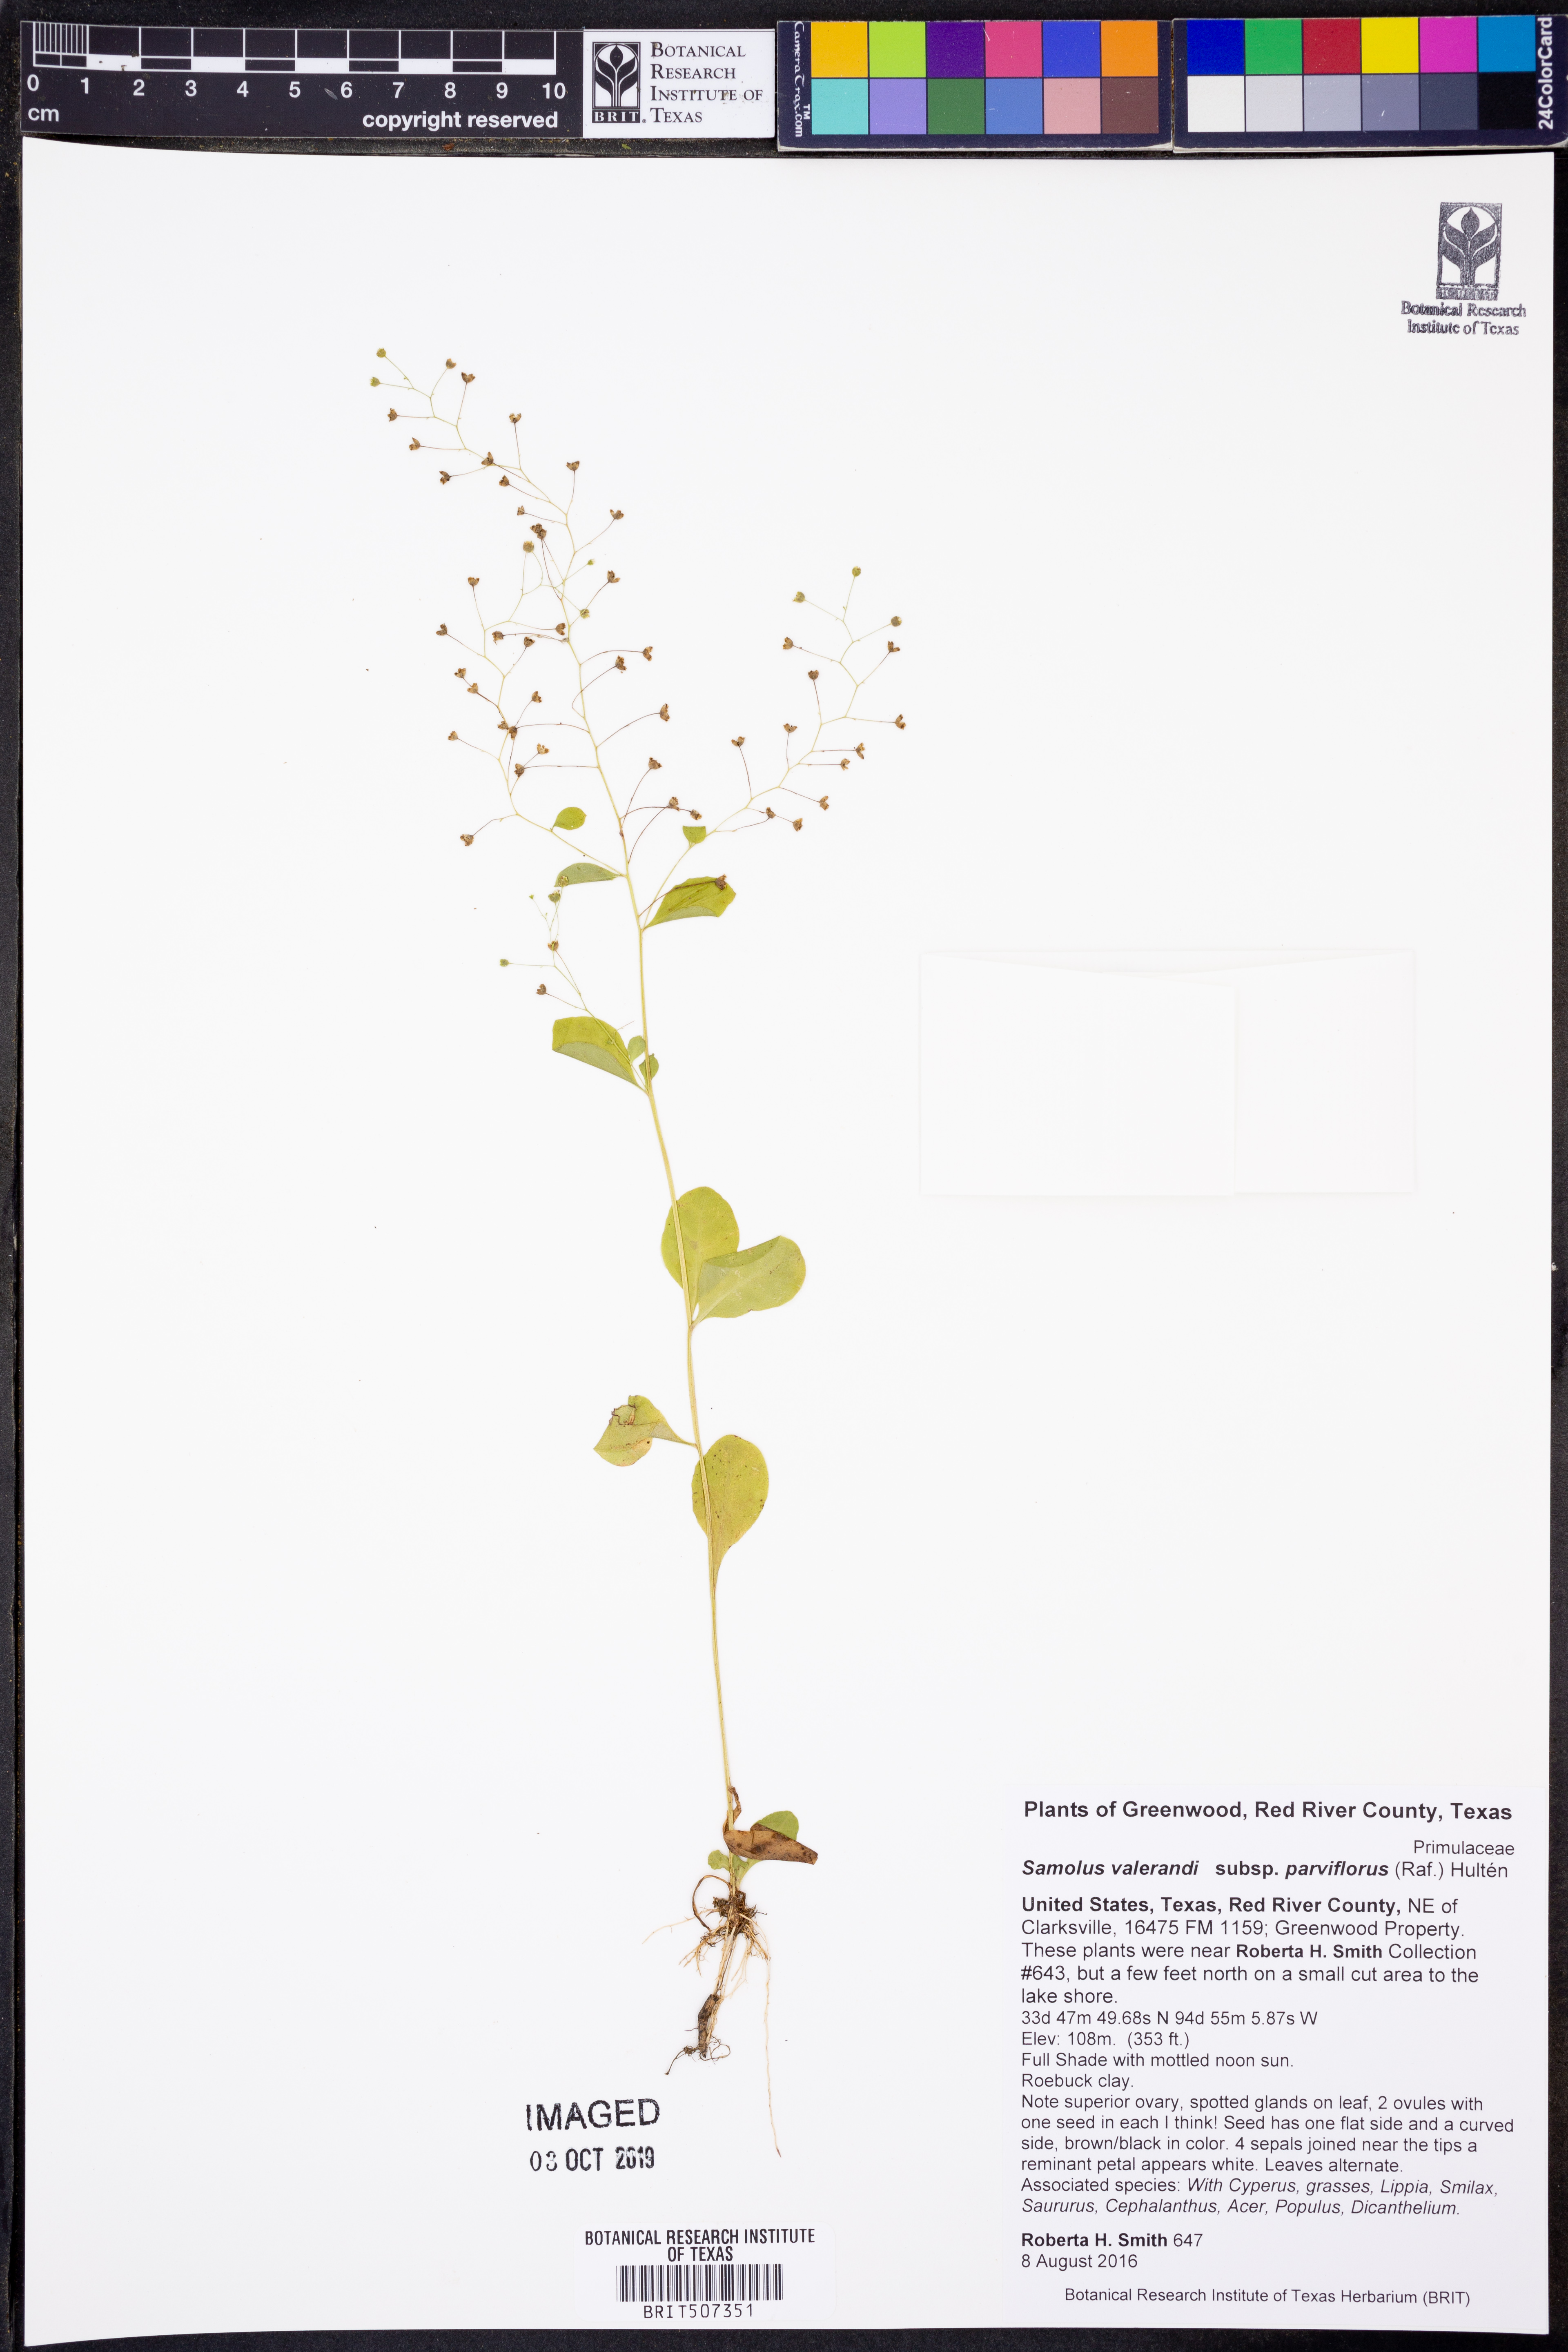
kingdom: Plantae
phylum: Tracheophyta
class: Magnoliopsida
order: Ericales
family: Primulaceae
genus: Samolus
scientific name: Samolus parviflorus
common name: False water pimpernel
